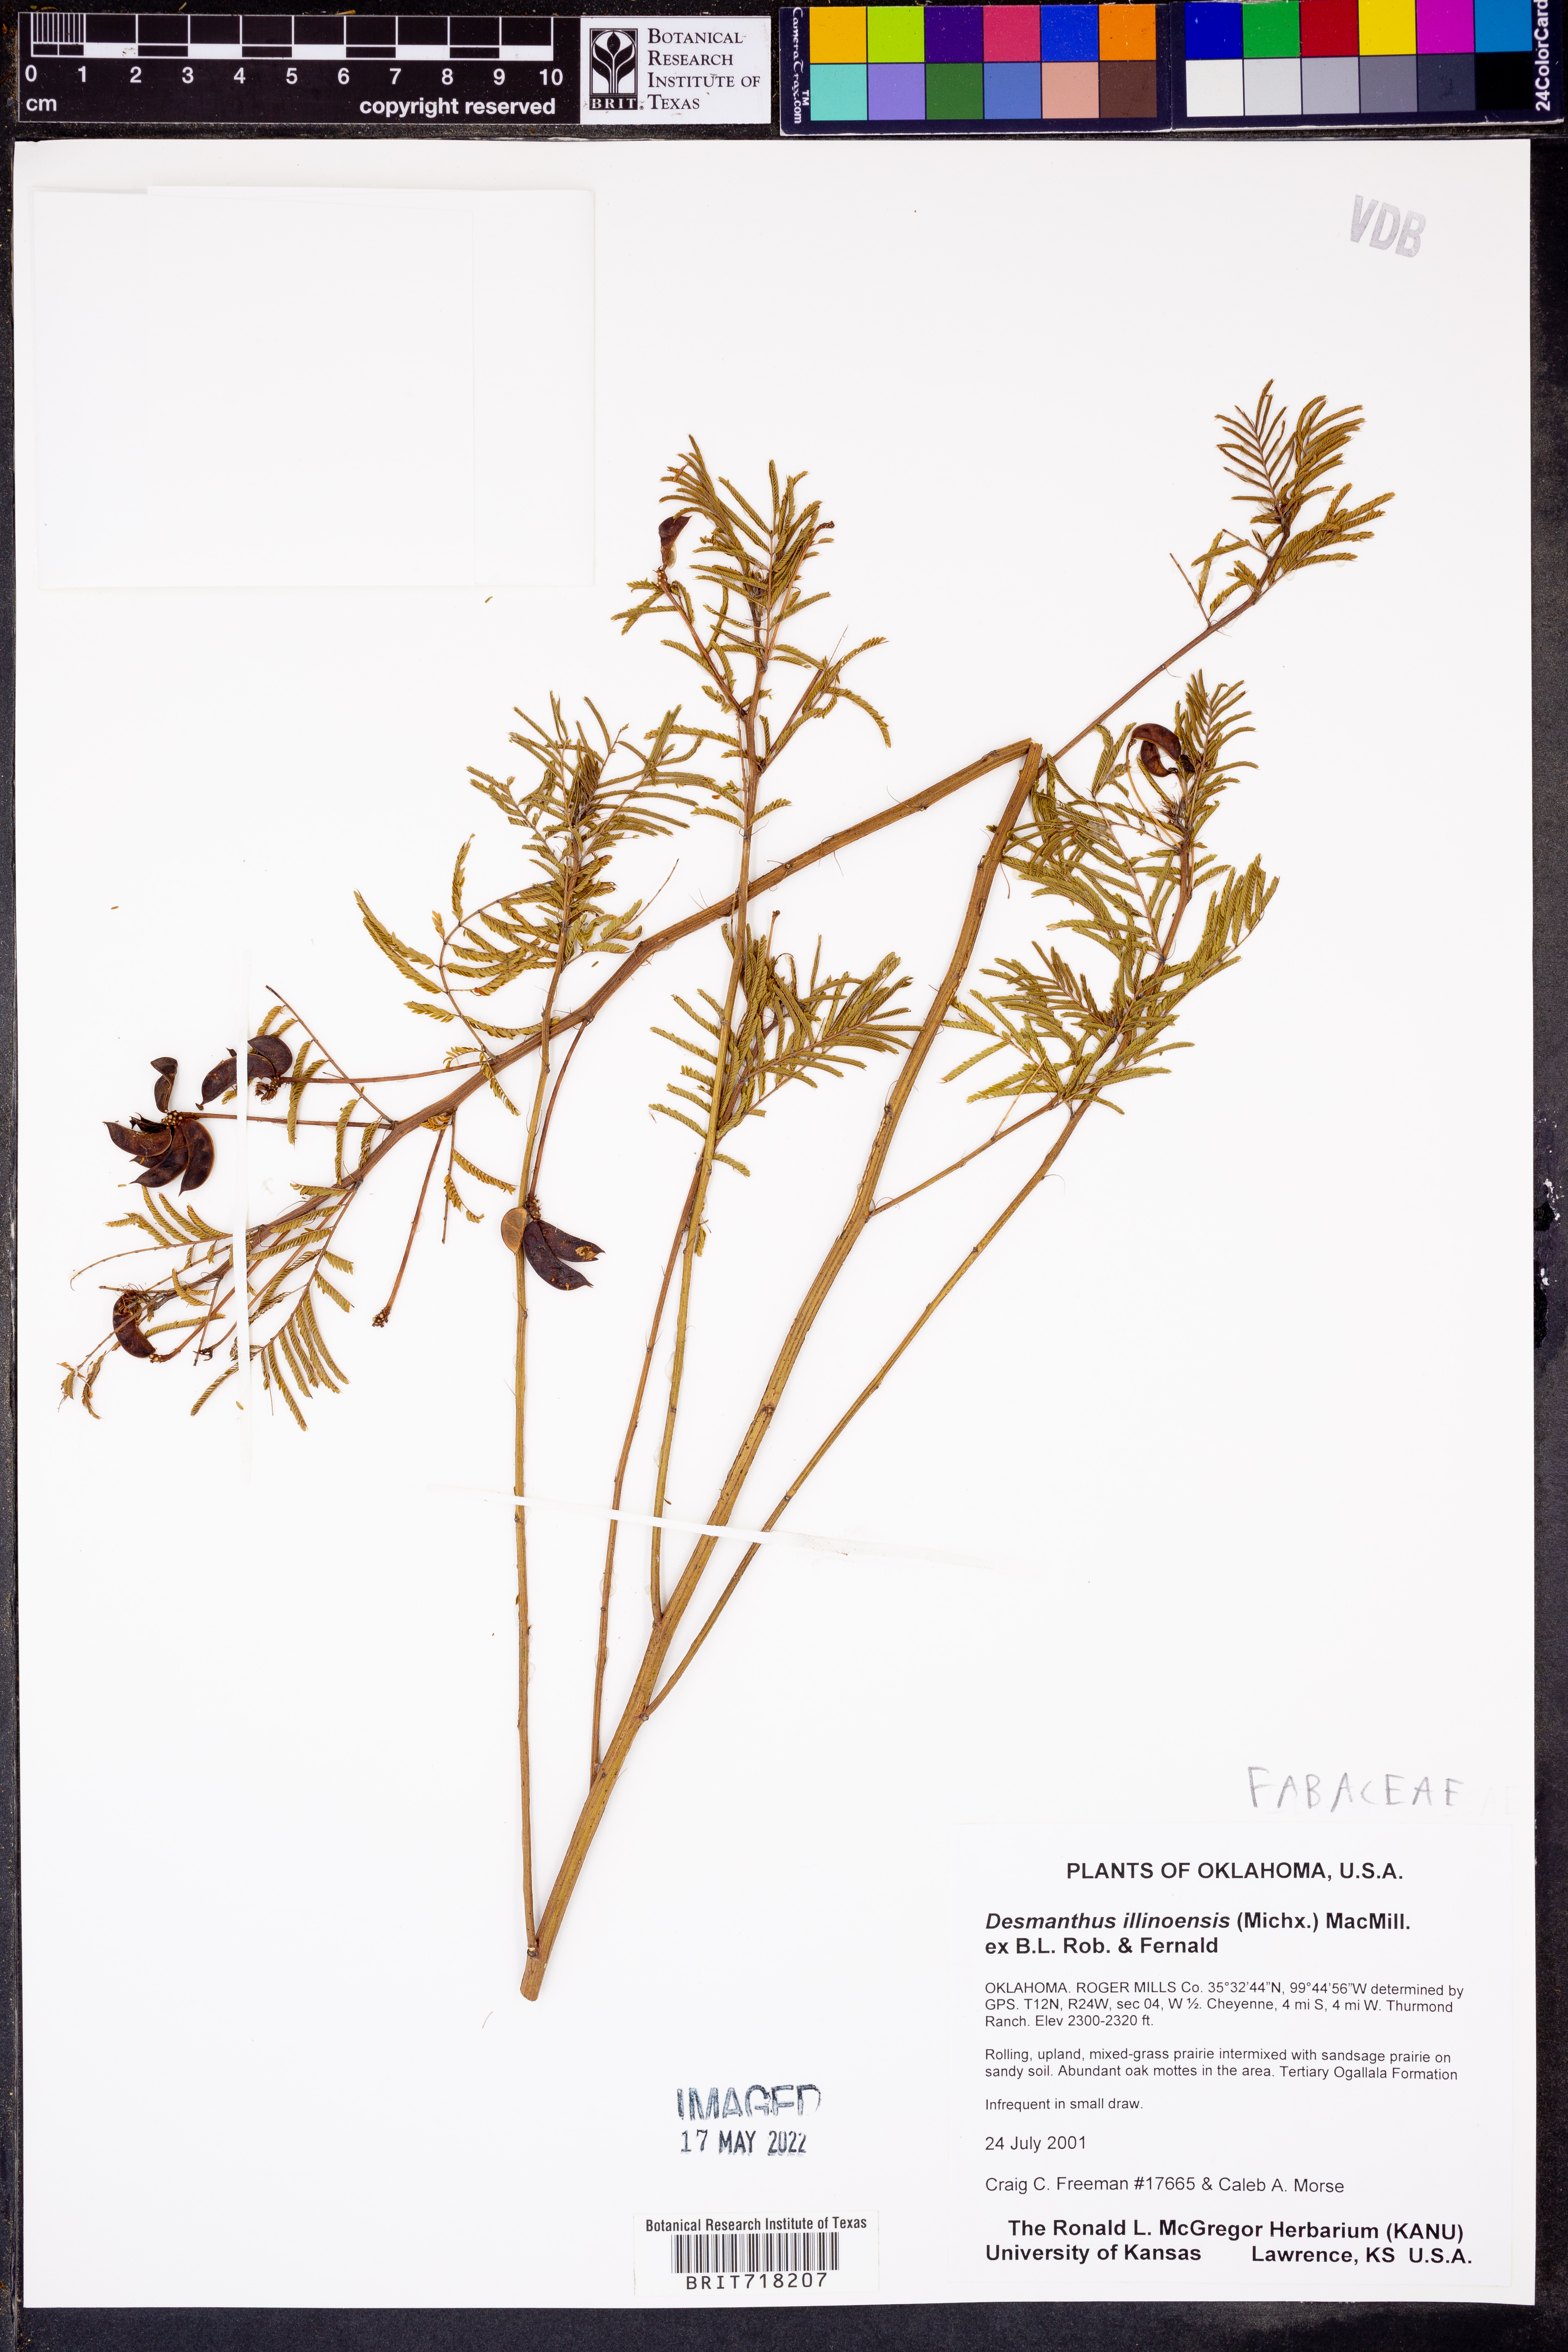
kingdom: Plantae
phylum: Tracheophyta
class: Magnoliopsida
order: Fabales
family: Fabaceae
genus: Desmanthus
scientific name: Desmanthus illinoensis
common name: Illinois bundle-flower
